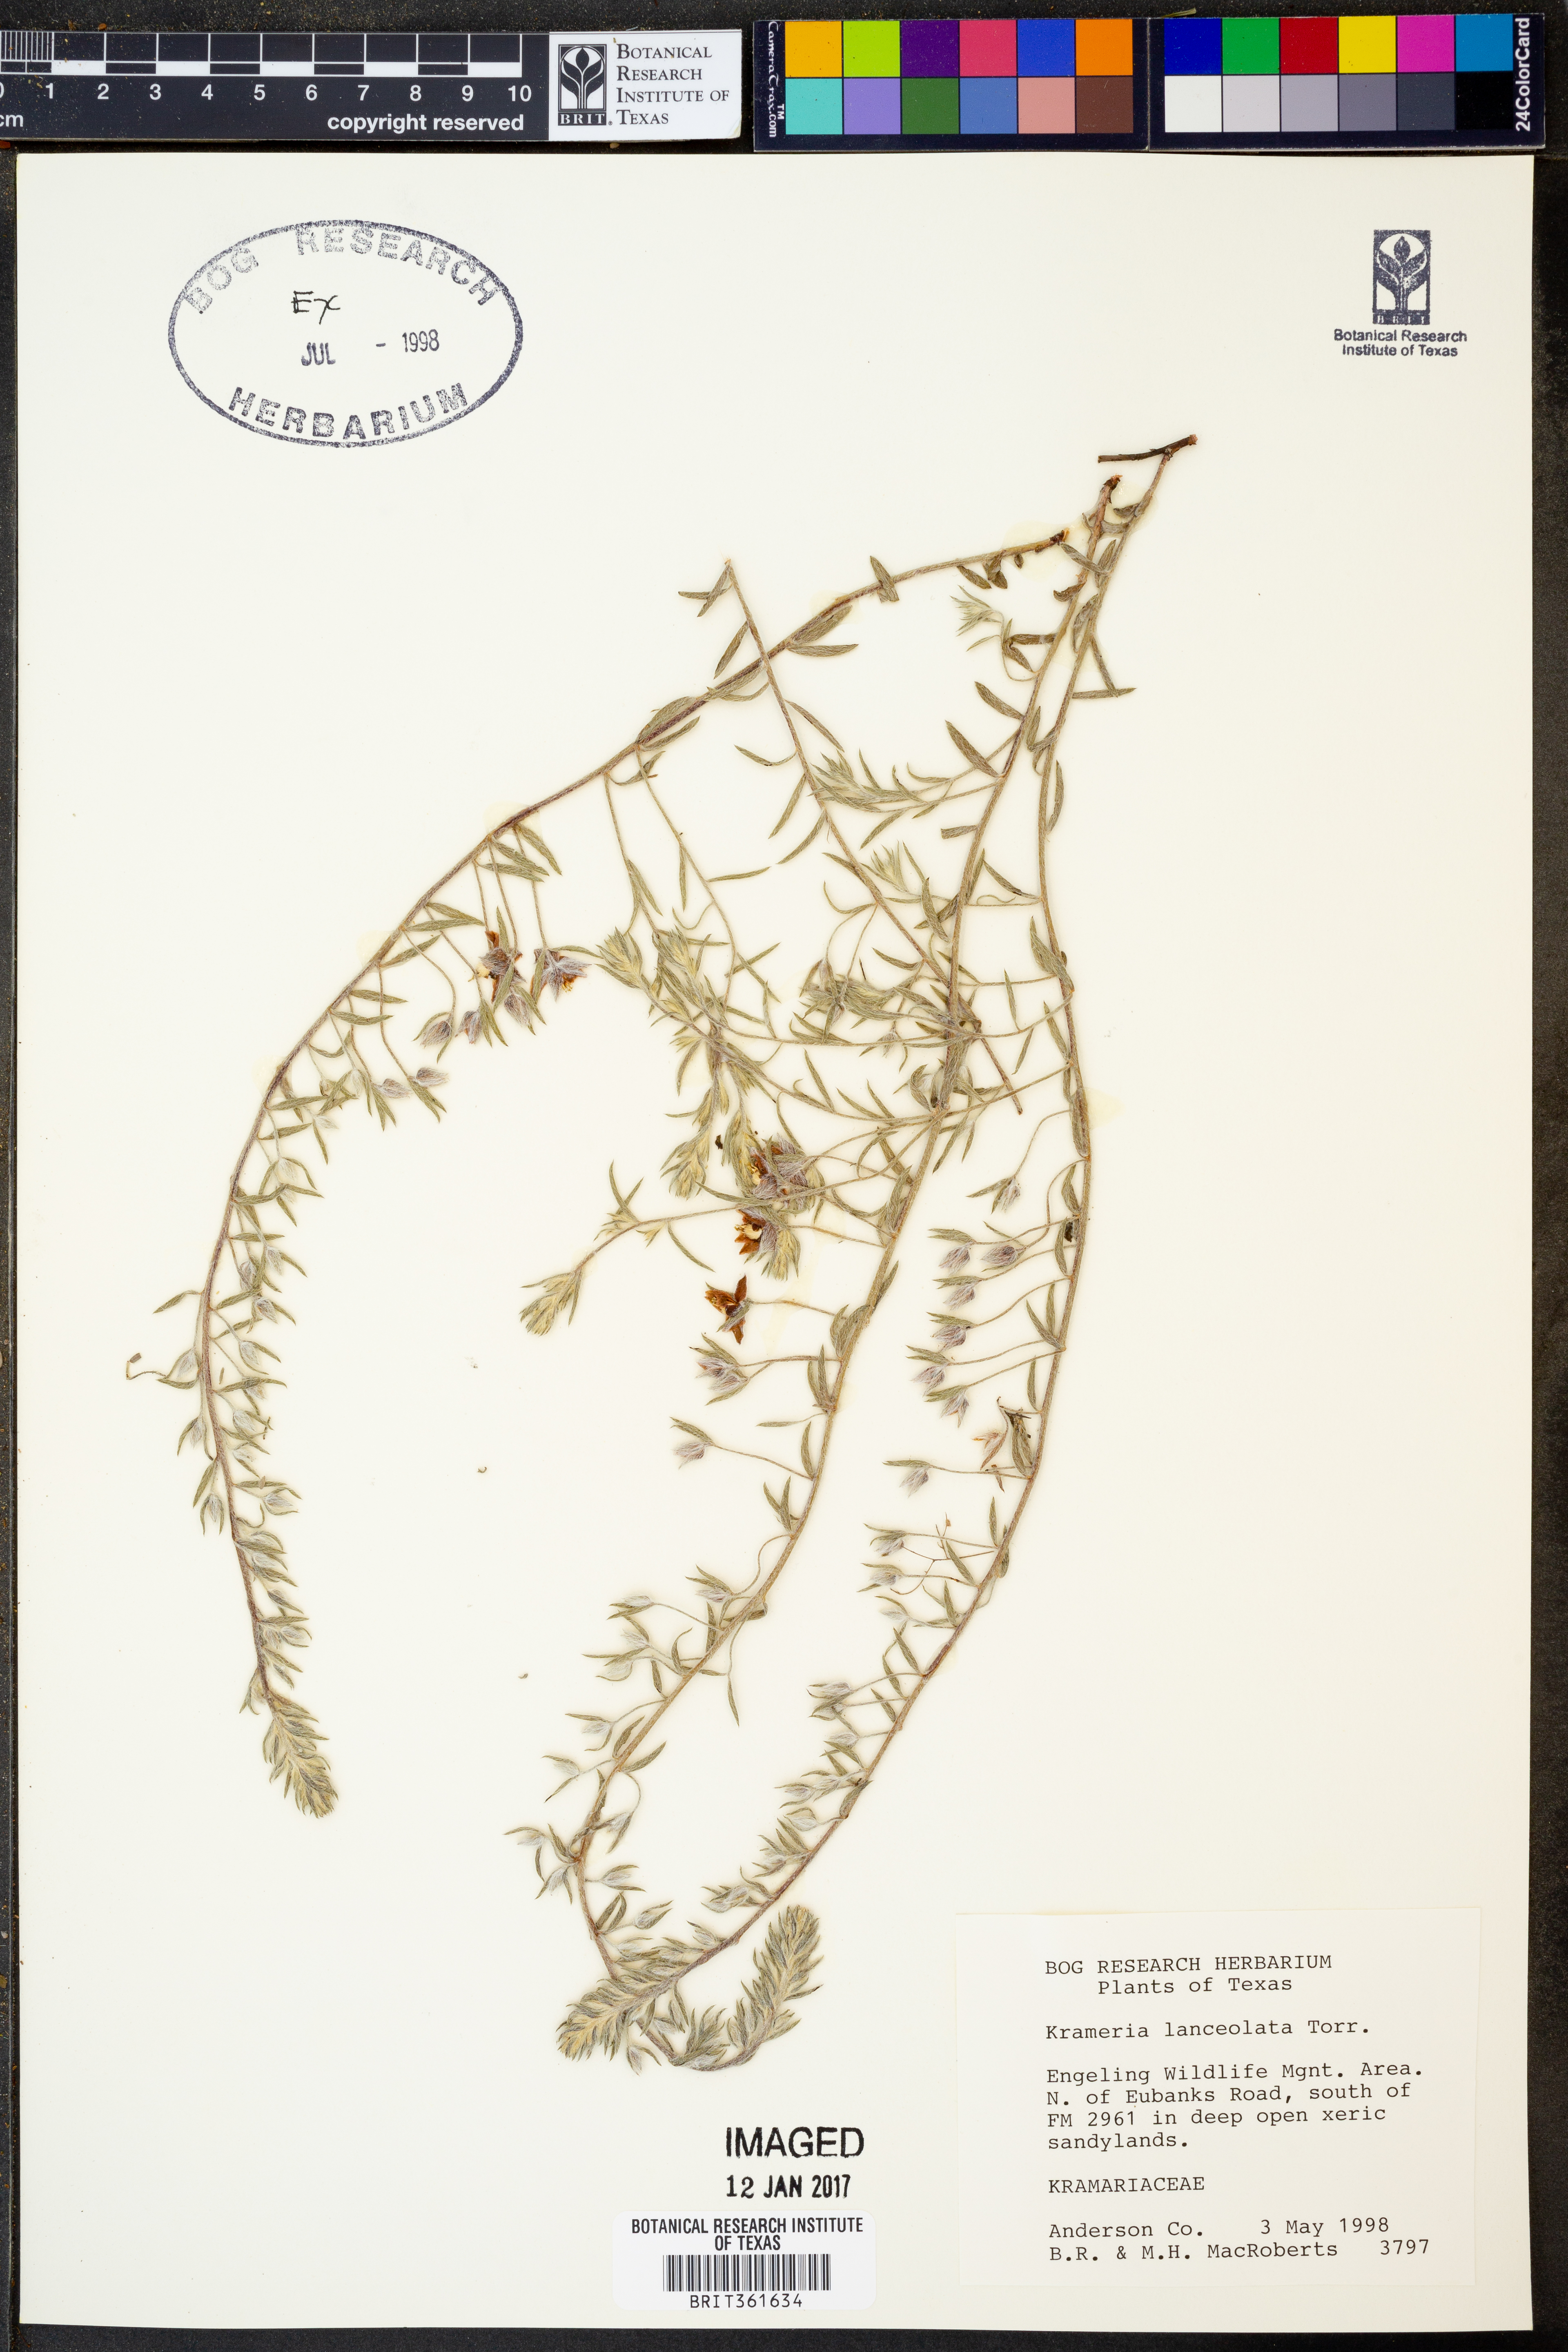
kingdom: Plantae
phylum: Tracheophyta
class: Magnoliopsida
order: Zygophyllales
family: Krameriaceae
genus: Krameria
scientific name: Krameria lanceolata
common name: Ratany
